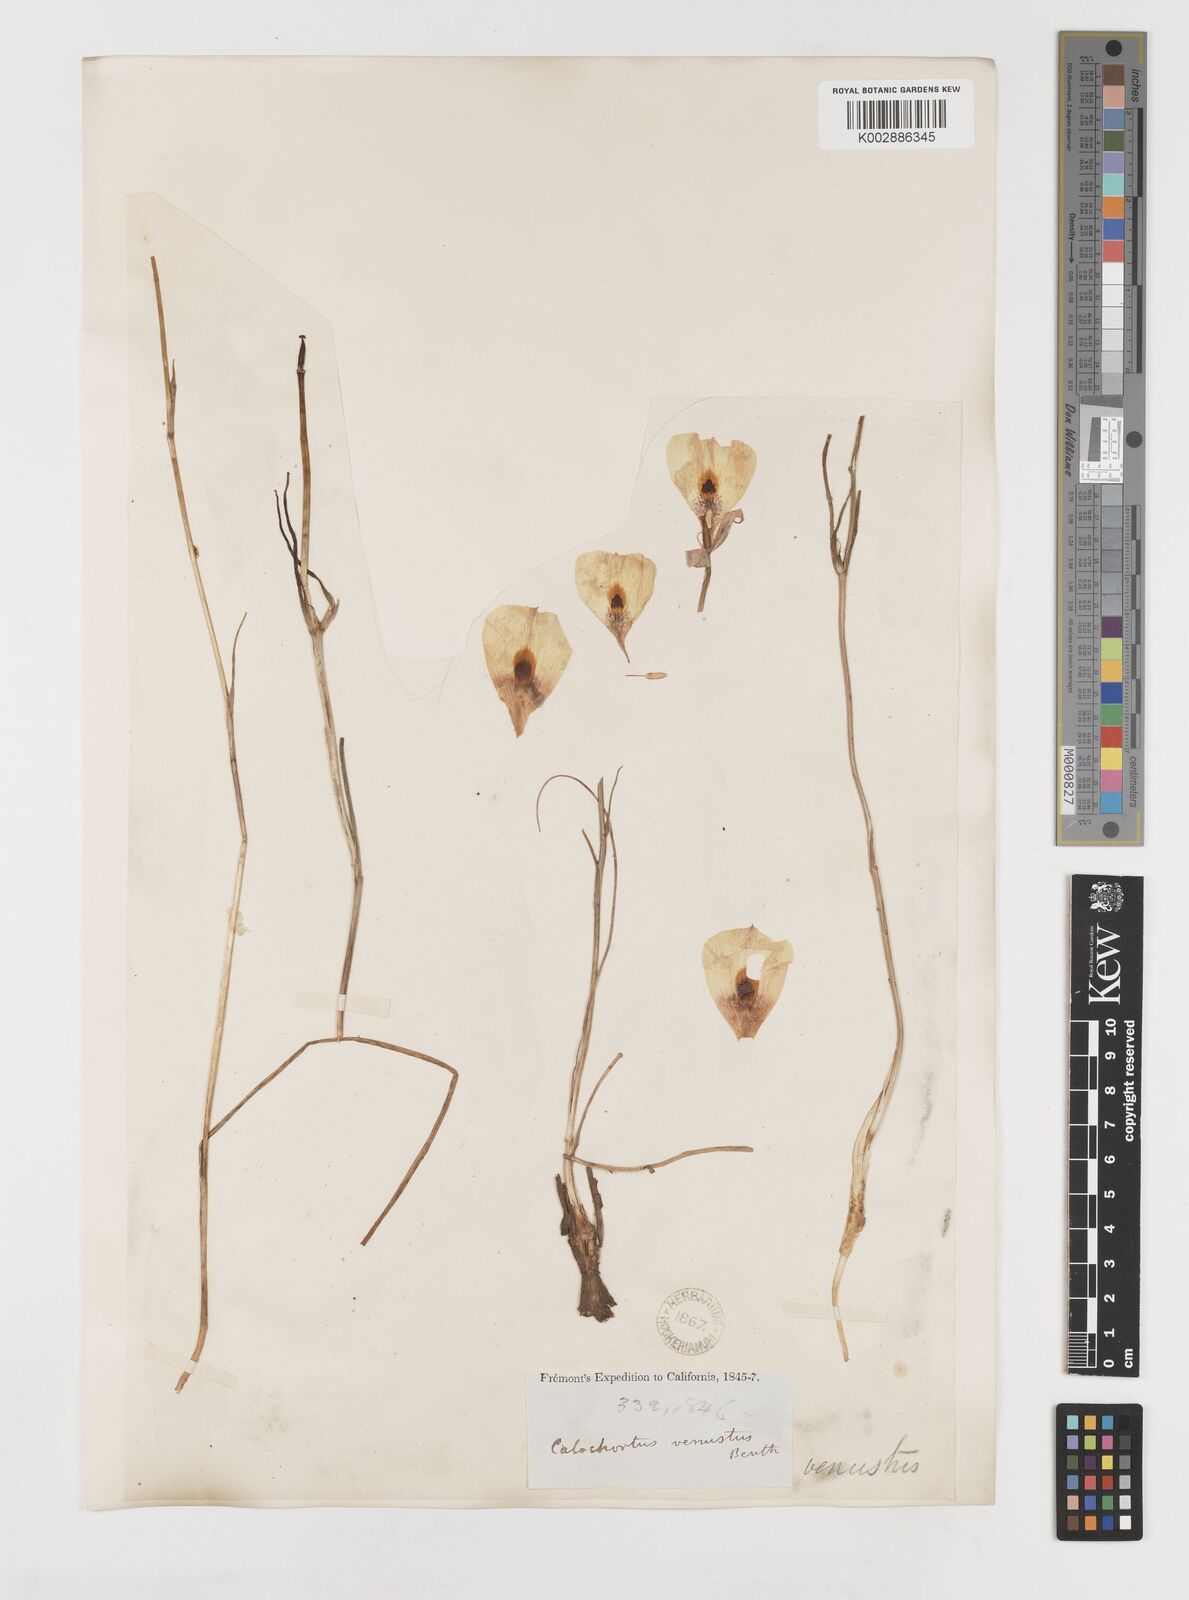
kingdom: Plantae
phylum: Tracheophyta
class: Liliopsida
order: Liliales
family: Liliaceae
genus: Calochortus
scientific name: Calochortus venustus
